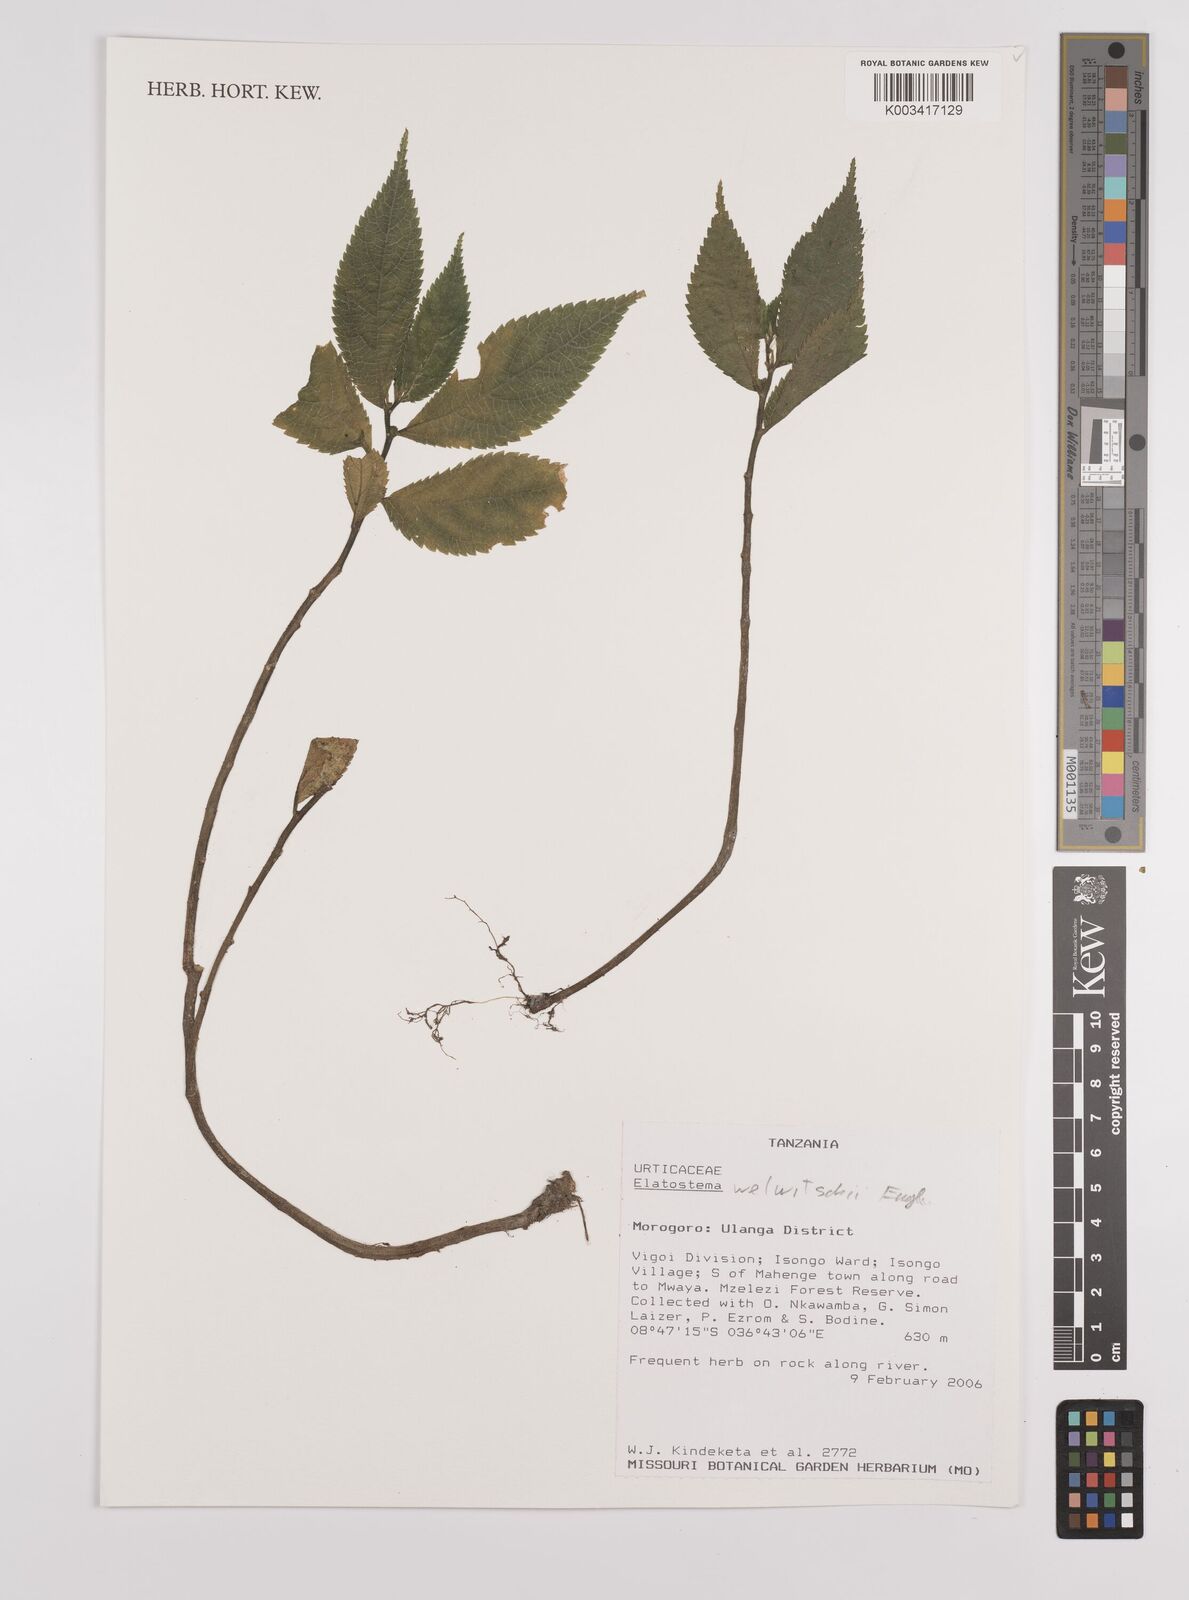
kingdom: Plantae
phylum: Tracheophyta
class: Magnoliopsida
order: Rosales
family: Urticaceae
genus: Elatostema
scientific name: Elatostema welwitschii
